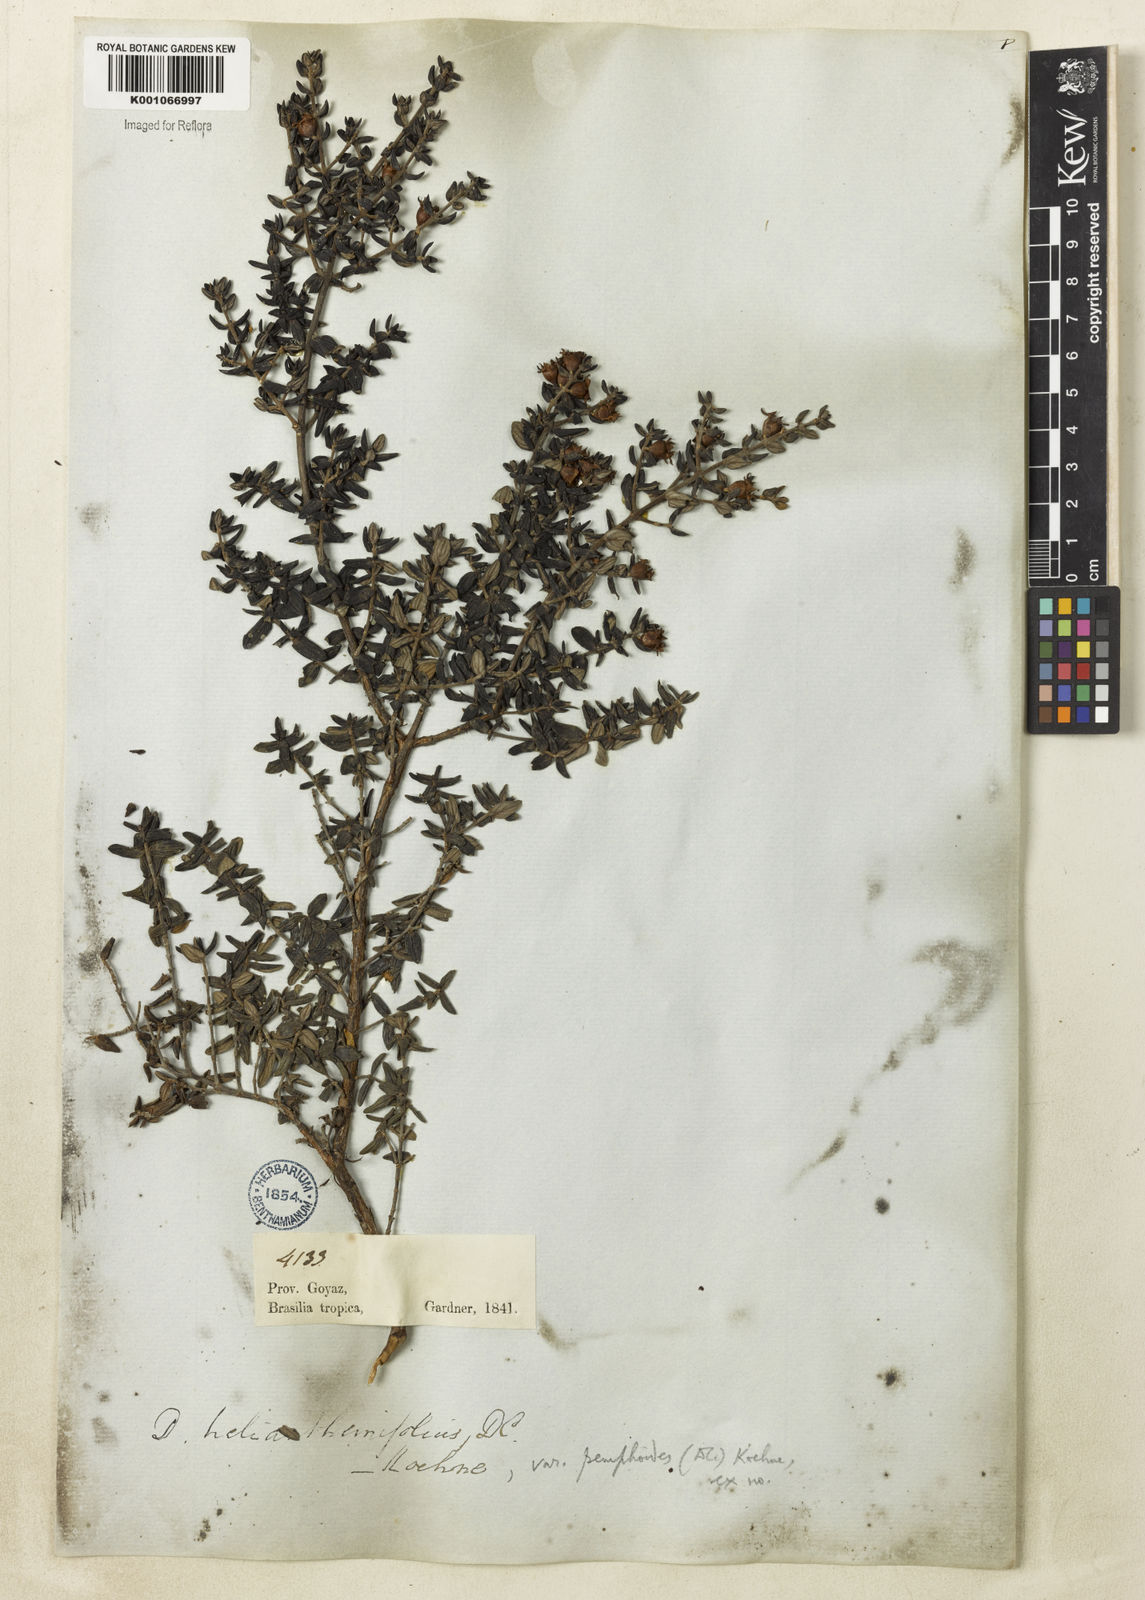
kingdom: Plantae
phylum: Tracheophyta
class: Magnoliopsida
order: Myrtales
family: Lythraceae
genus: Diplusodon
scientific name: Diplusodon helianthemifolius
